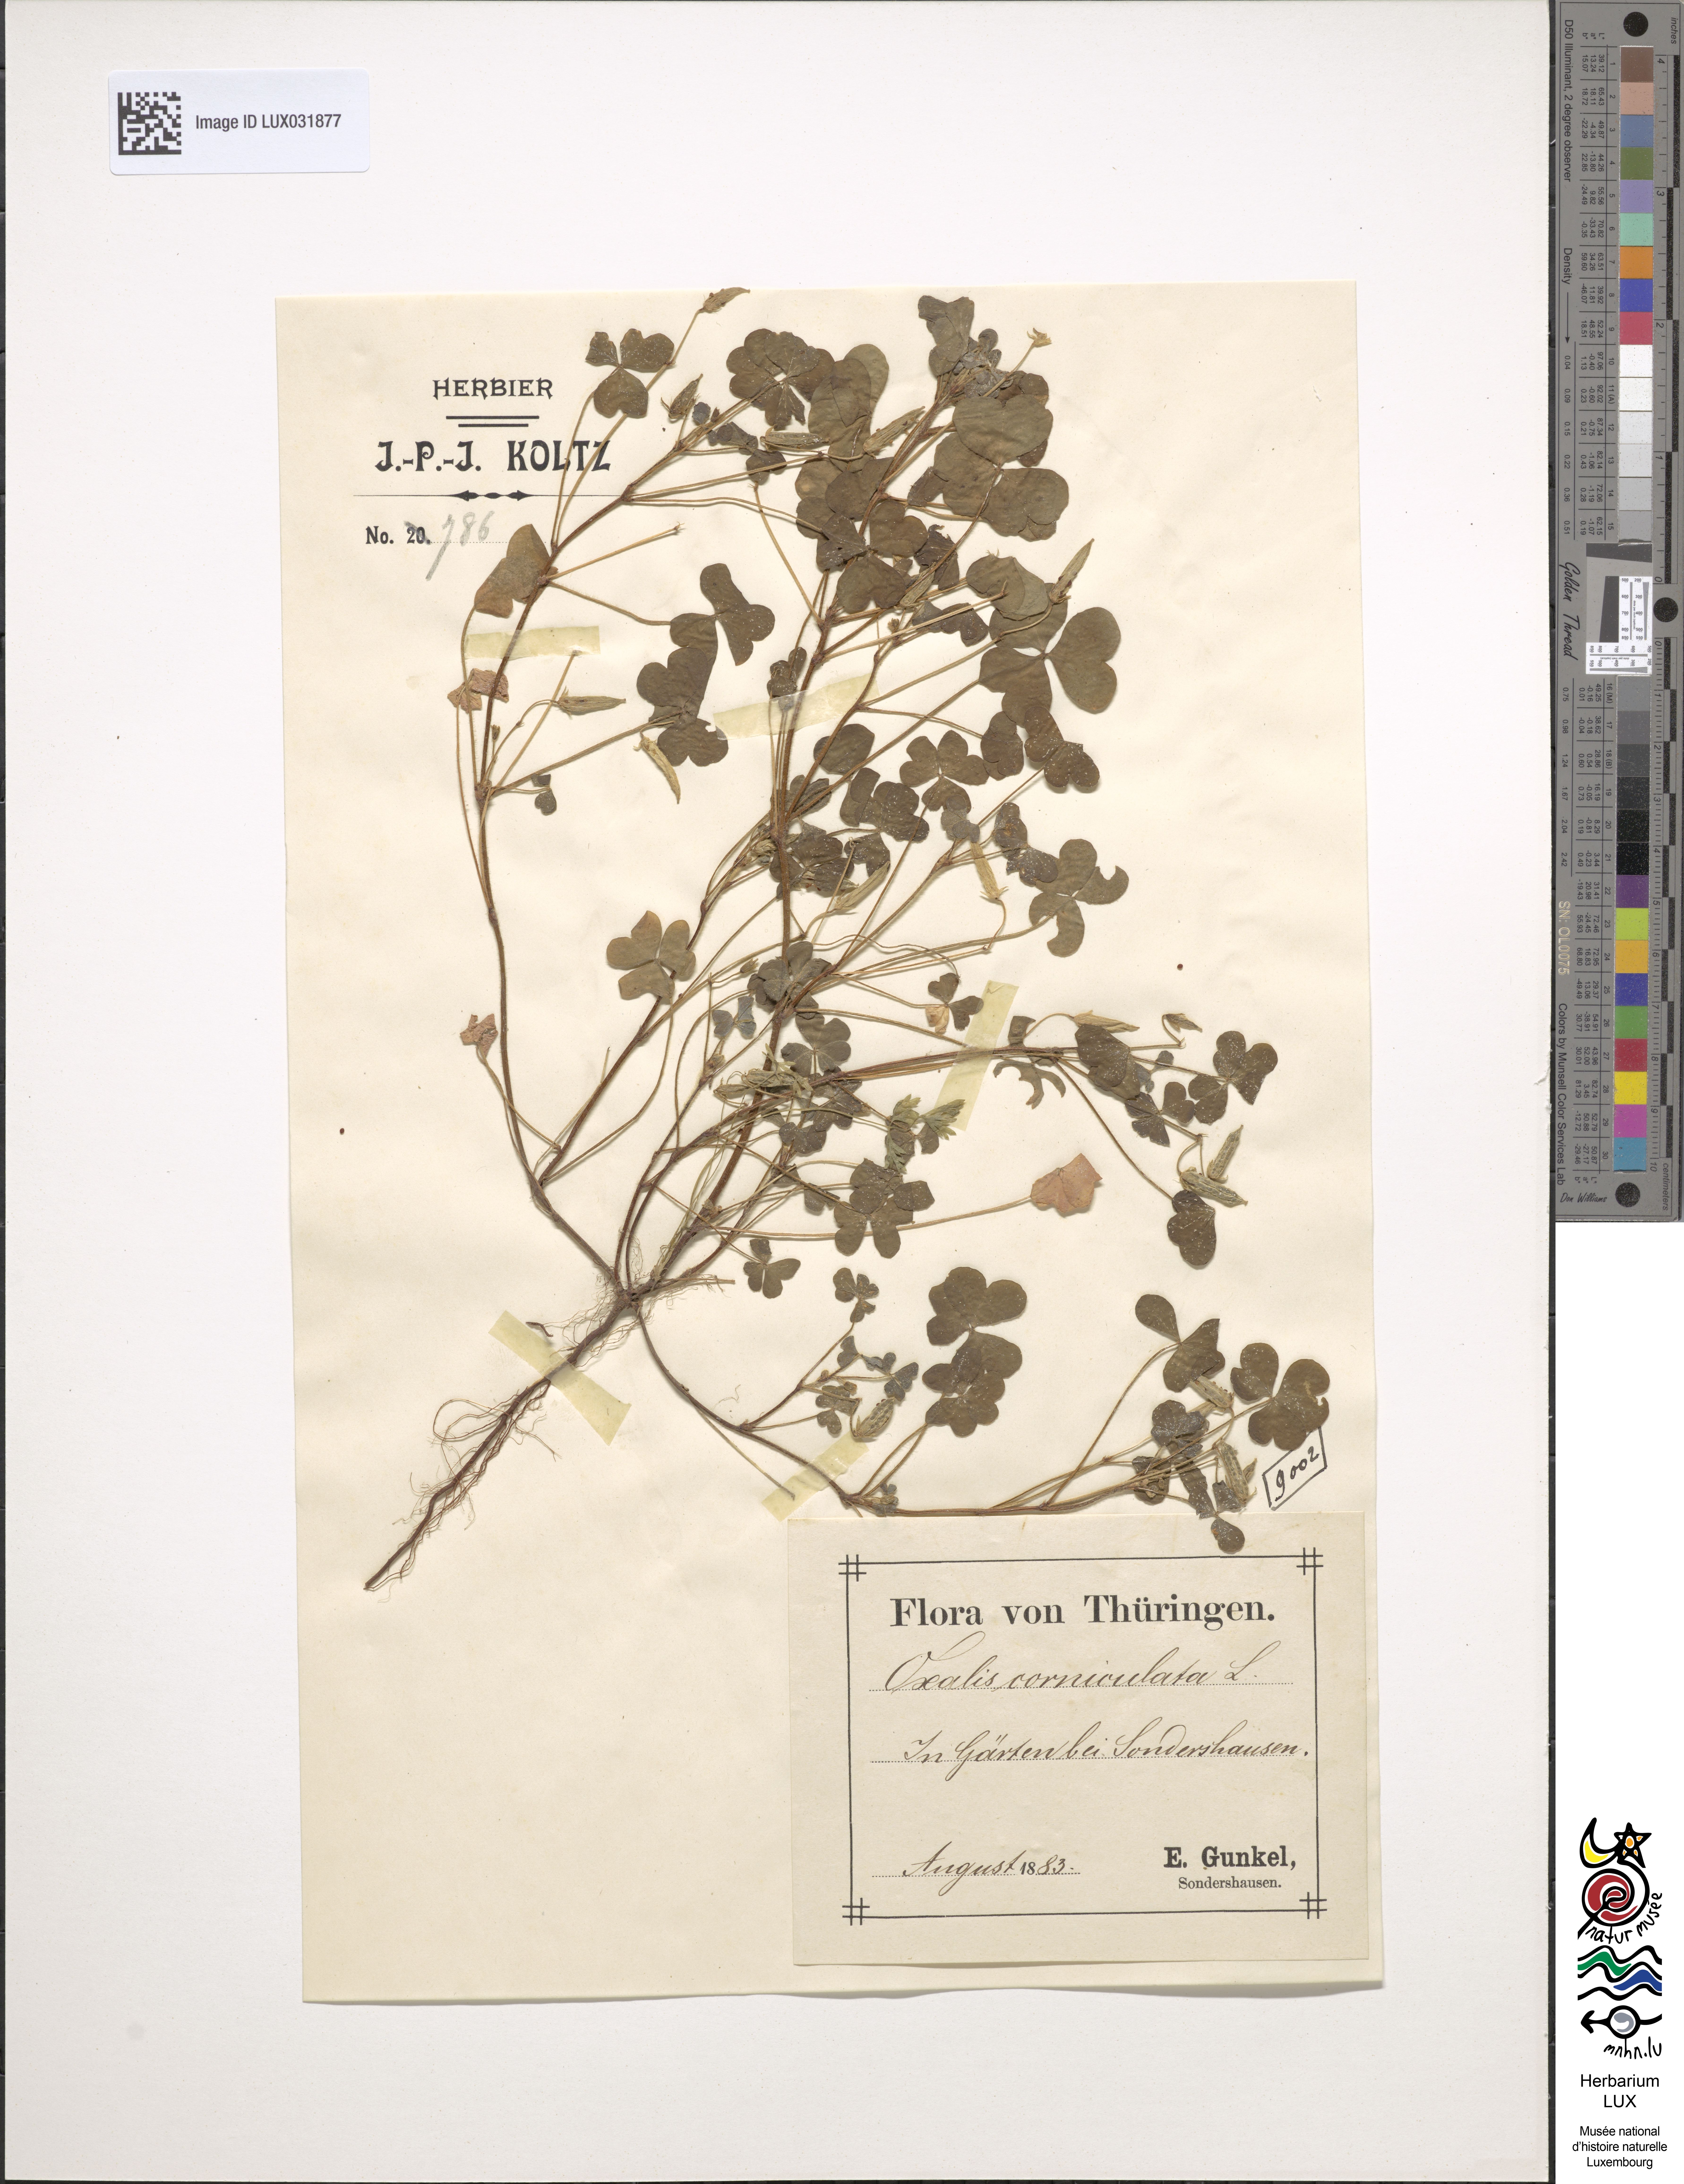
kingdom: Plantae
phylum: Tracheophyta
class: Magnoliopsida
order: Oxalidales
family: Oxalidaceae
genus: Oxalis
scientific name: Oxalis corniculata
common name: Procumbent yellow-sorrel
